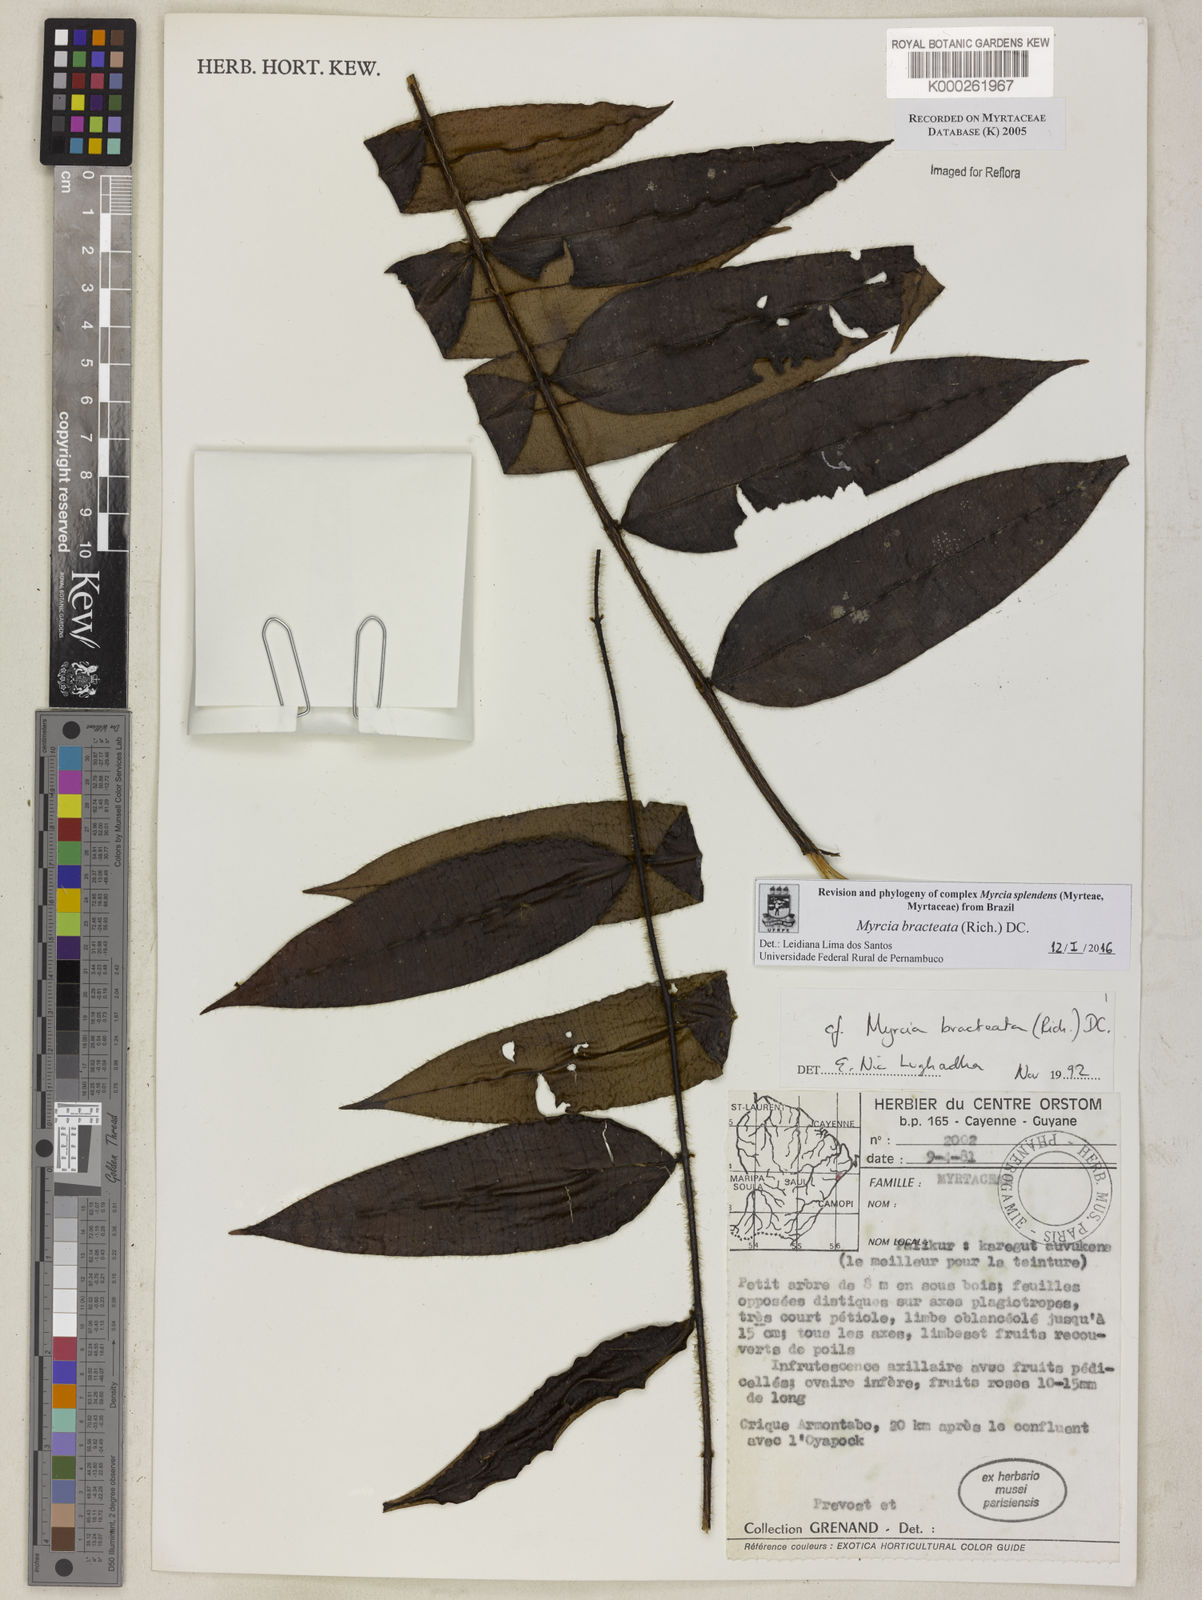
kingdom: Plantae
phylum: Tracheophyta
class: Magnoliopsida
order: Myrtales
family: Myrtaceae
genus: Myrcia
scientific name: Myrcia bracteata
